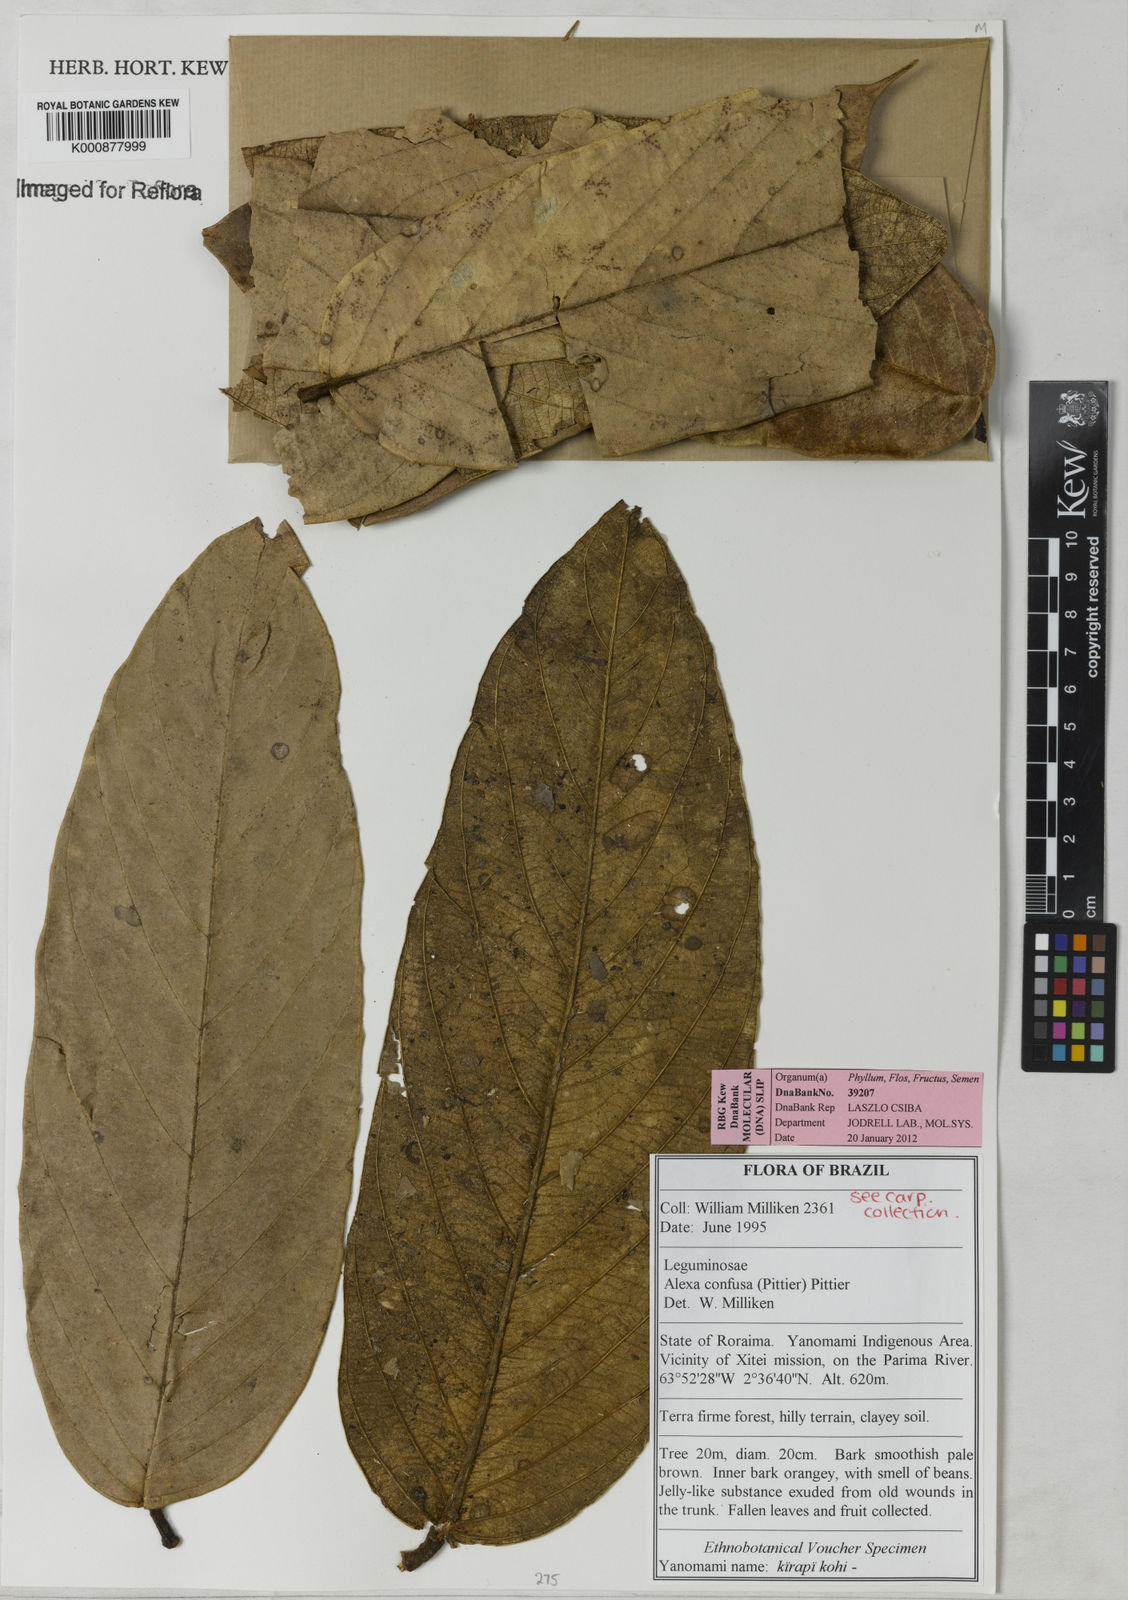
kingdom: Plantae
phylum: Tracheophyta
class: Magnoliopsida
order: Fabales
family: Fabaceae
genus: Alexa
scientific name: Alexa confusa
